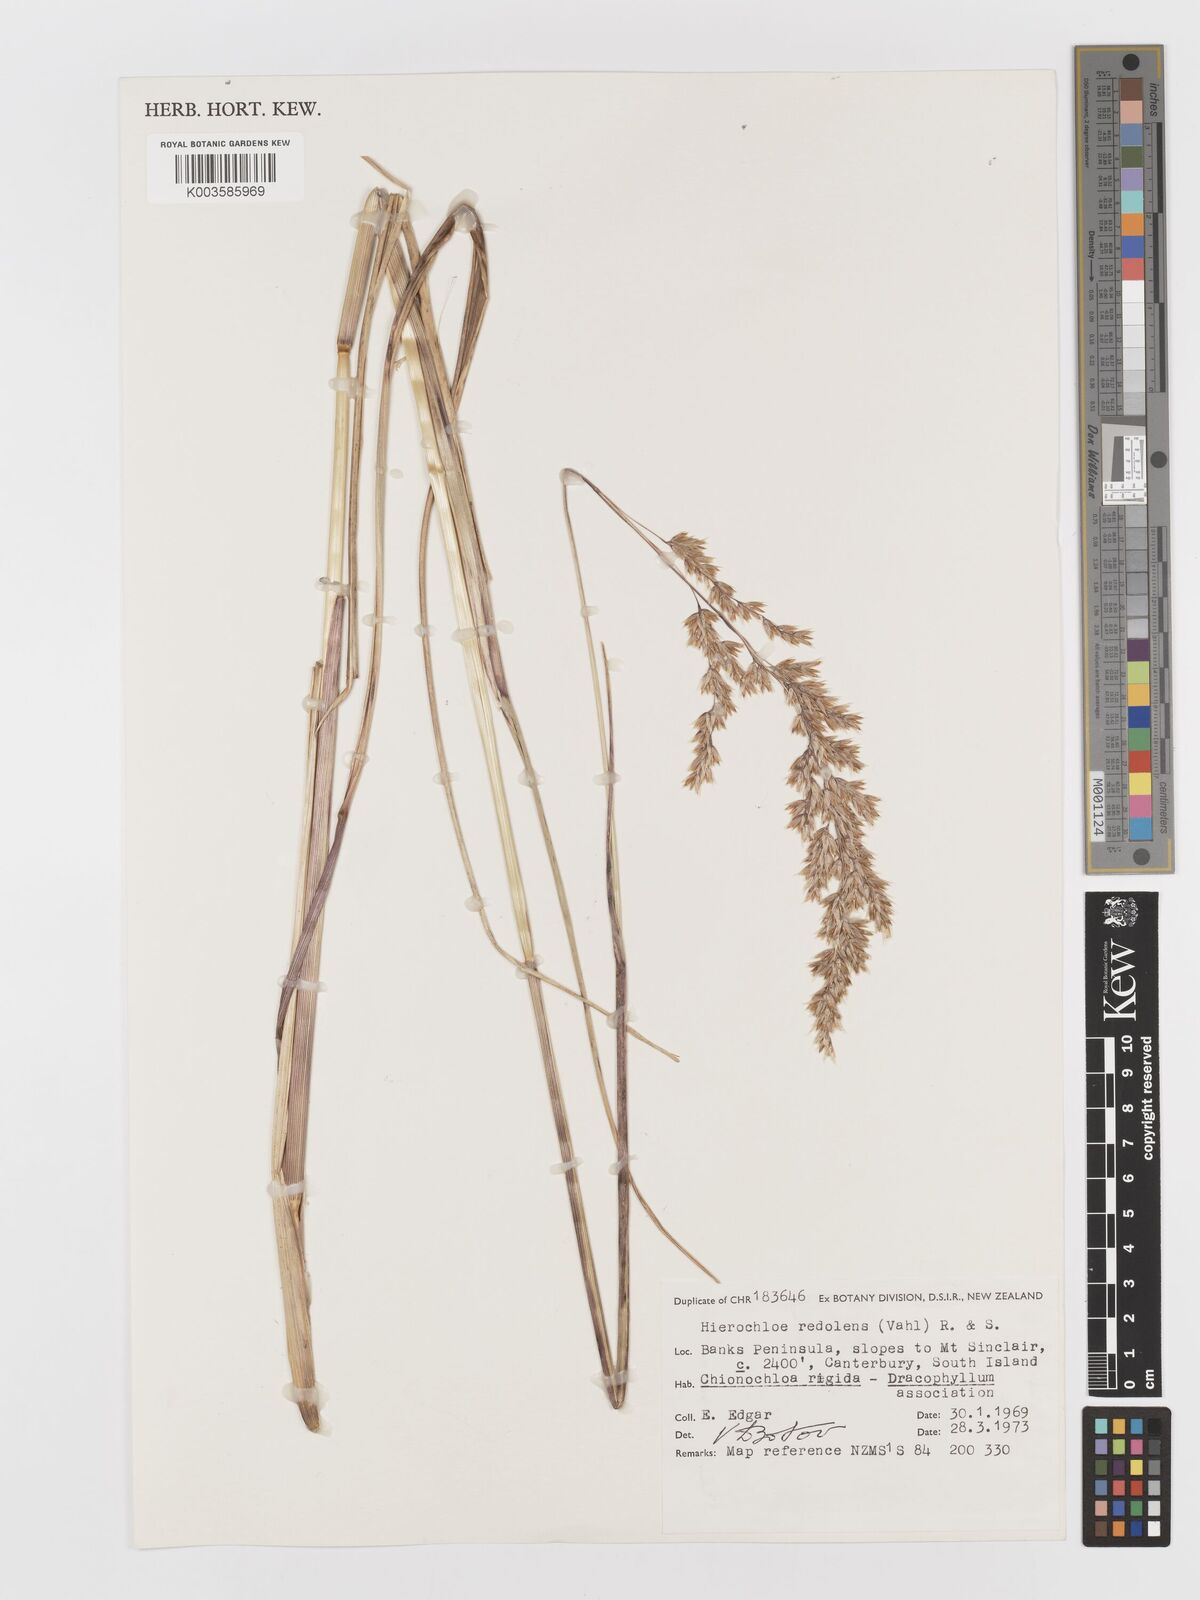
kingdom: Plantae
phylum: Tracheophyta
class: Liliopsida
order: Poales
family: Poaceae
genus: Anthoxanthum
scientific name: Anthoxanthum redolens
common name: Sweet holy grass
